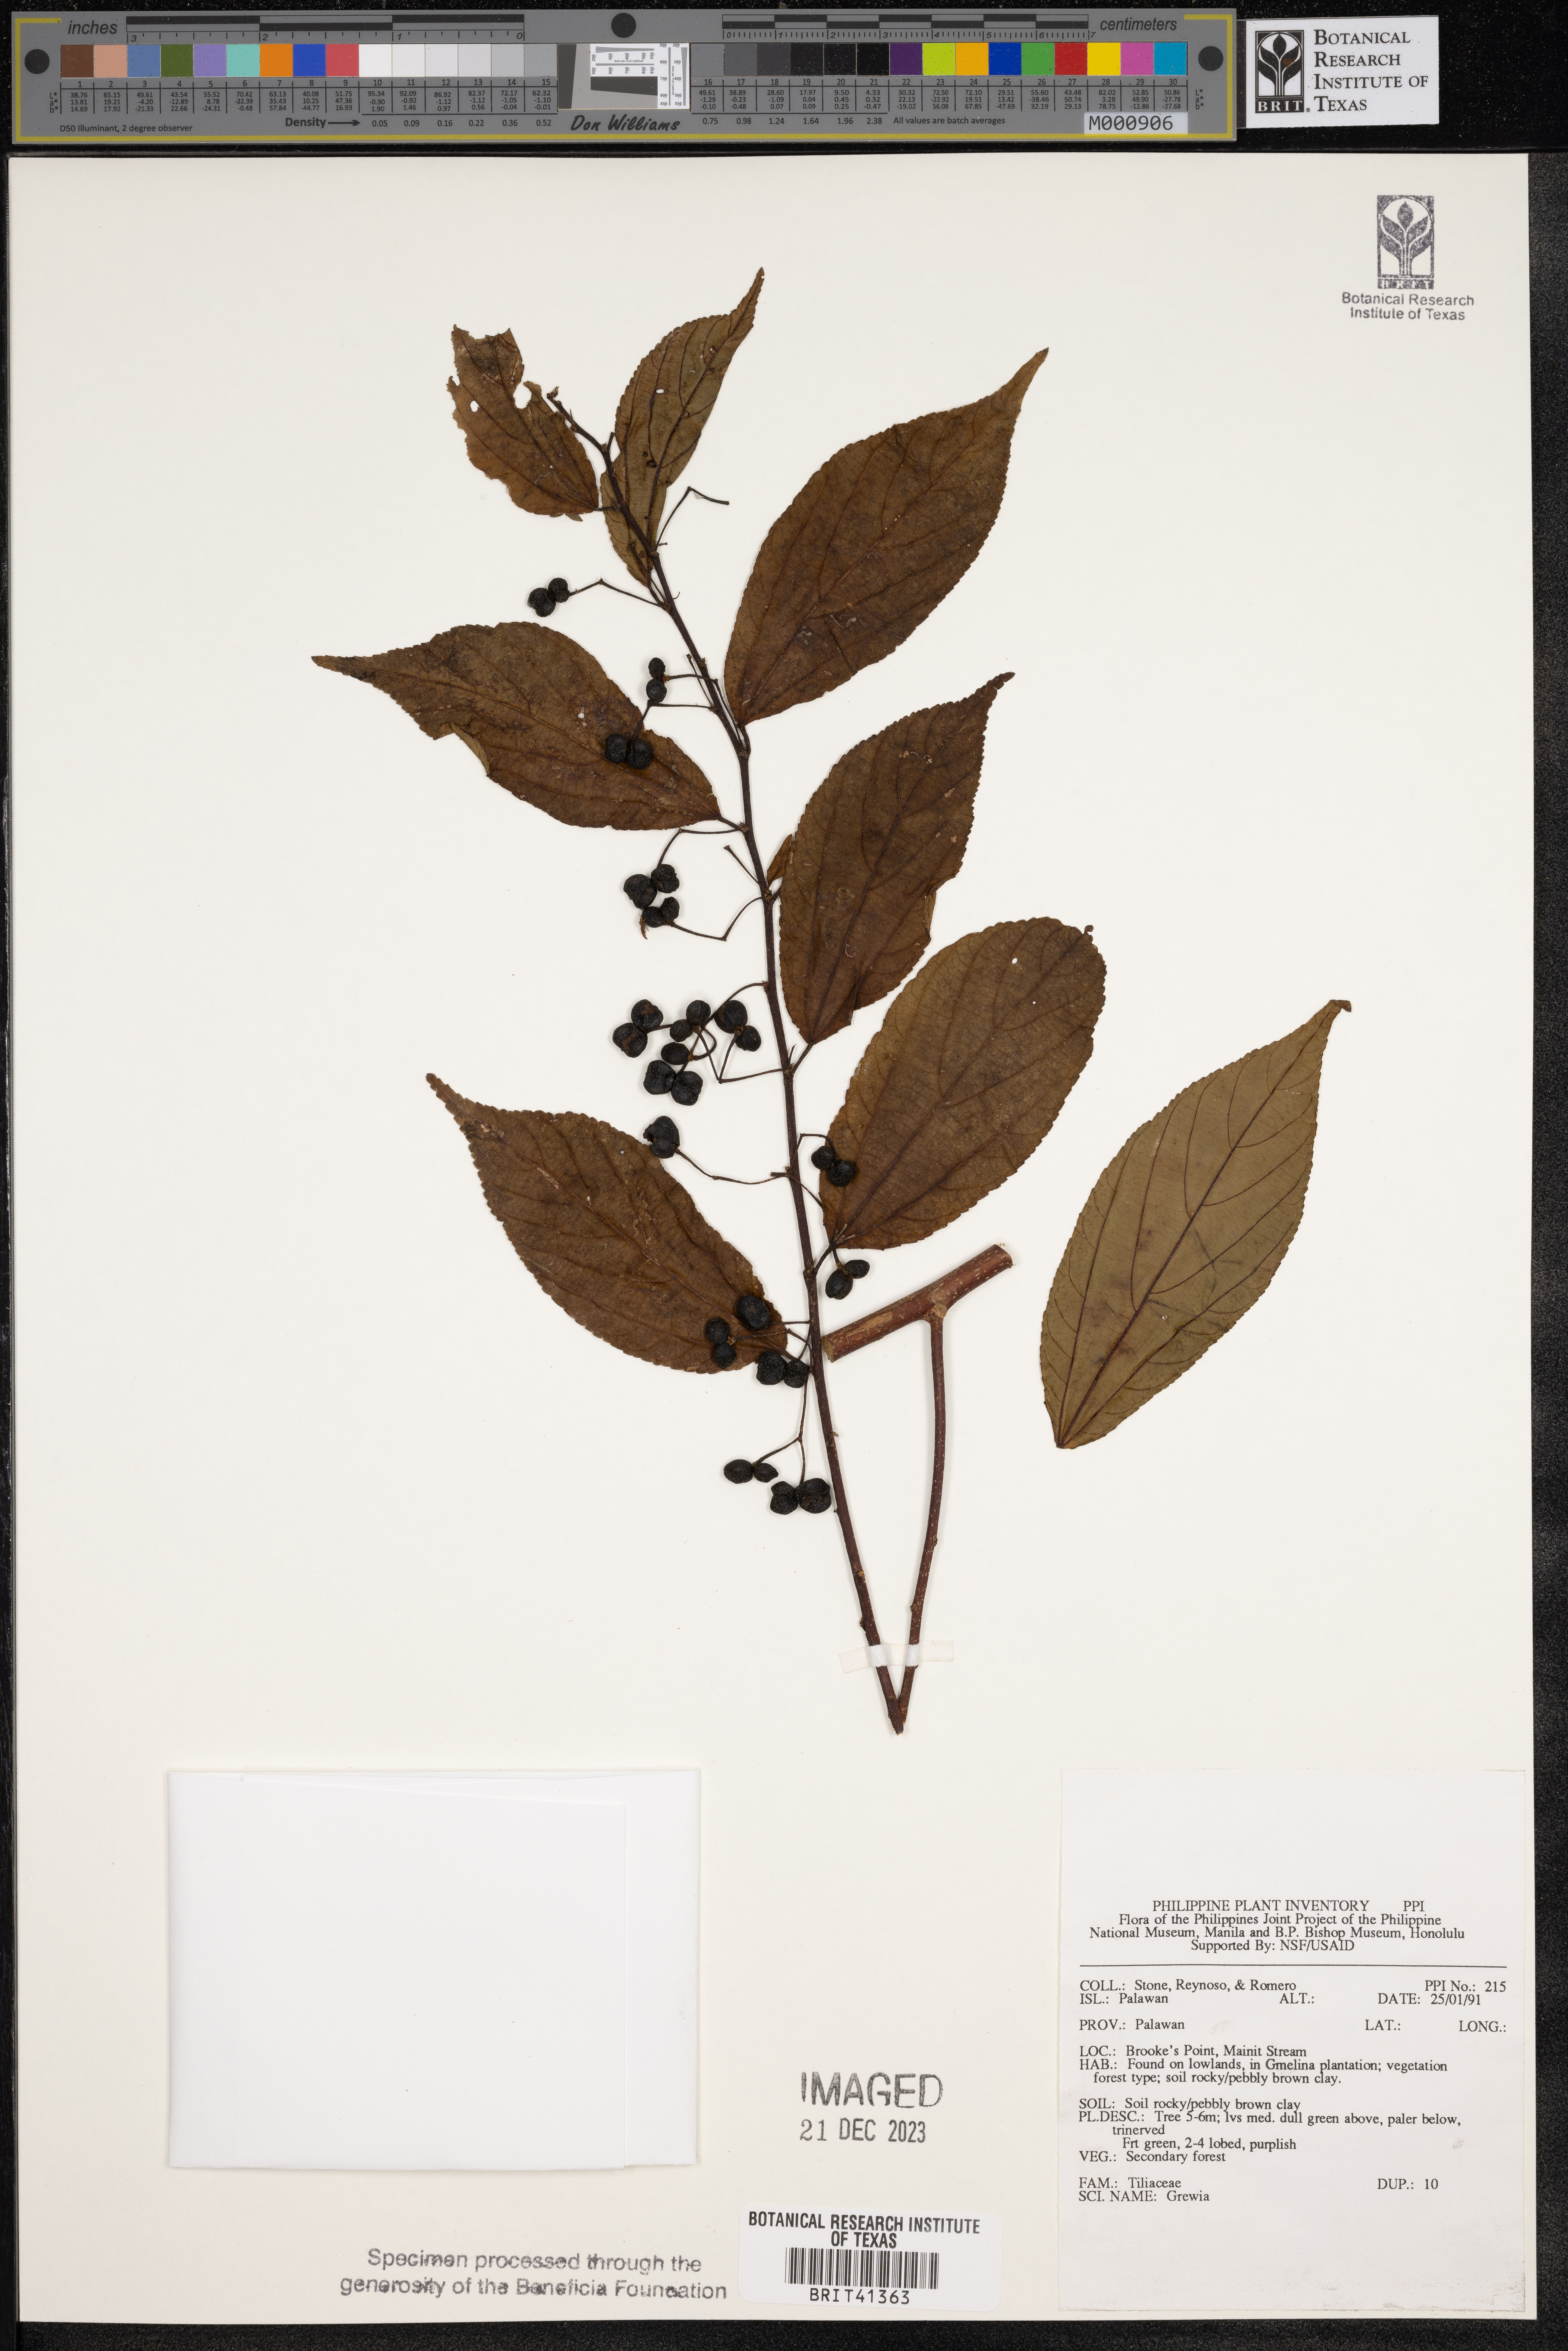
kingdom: Plantae
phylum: Tracheophyta
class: Magnoliopsida
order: Malvales
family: Malvaceae
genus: Grewia
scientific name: Grewia
